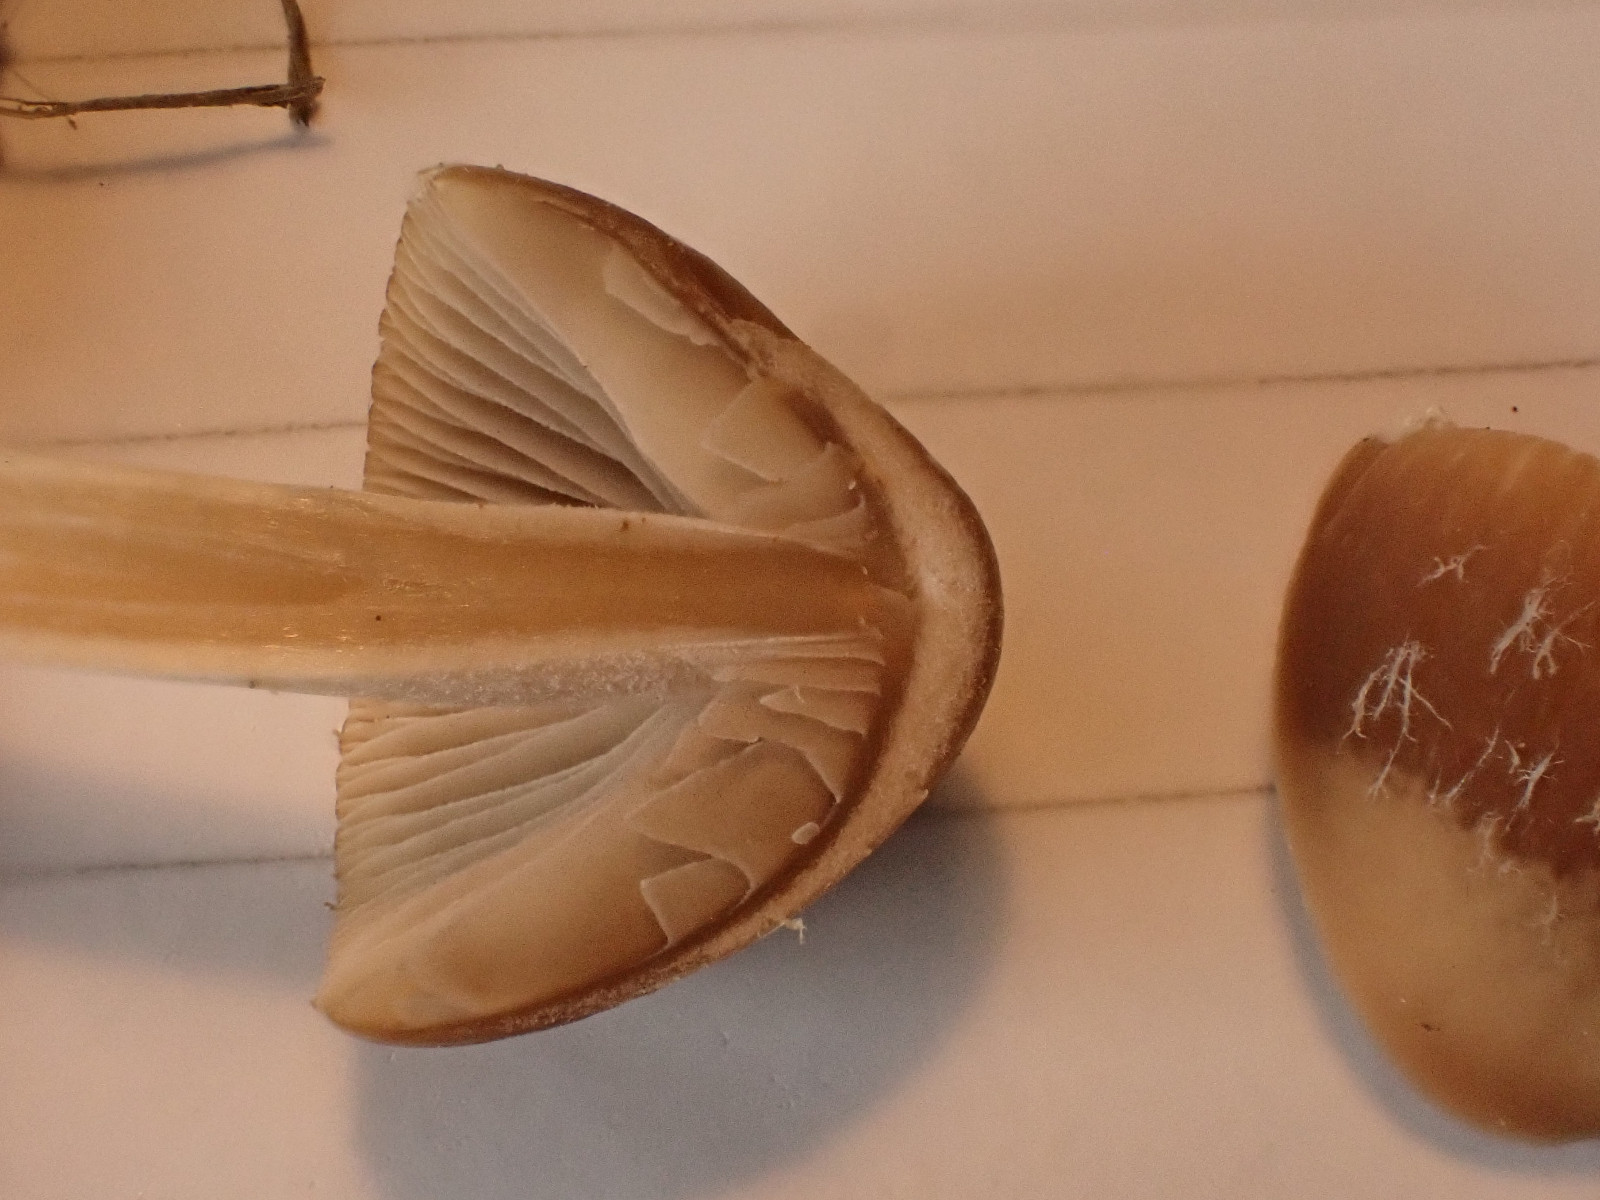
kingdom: Fungi
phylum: Basidiomycota
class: Agaricomycetes
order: Agaricales
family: Psathyrellaceae
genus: Psathyrella
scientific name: Psathyrella
